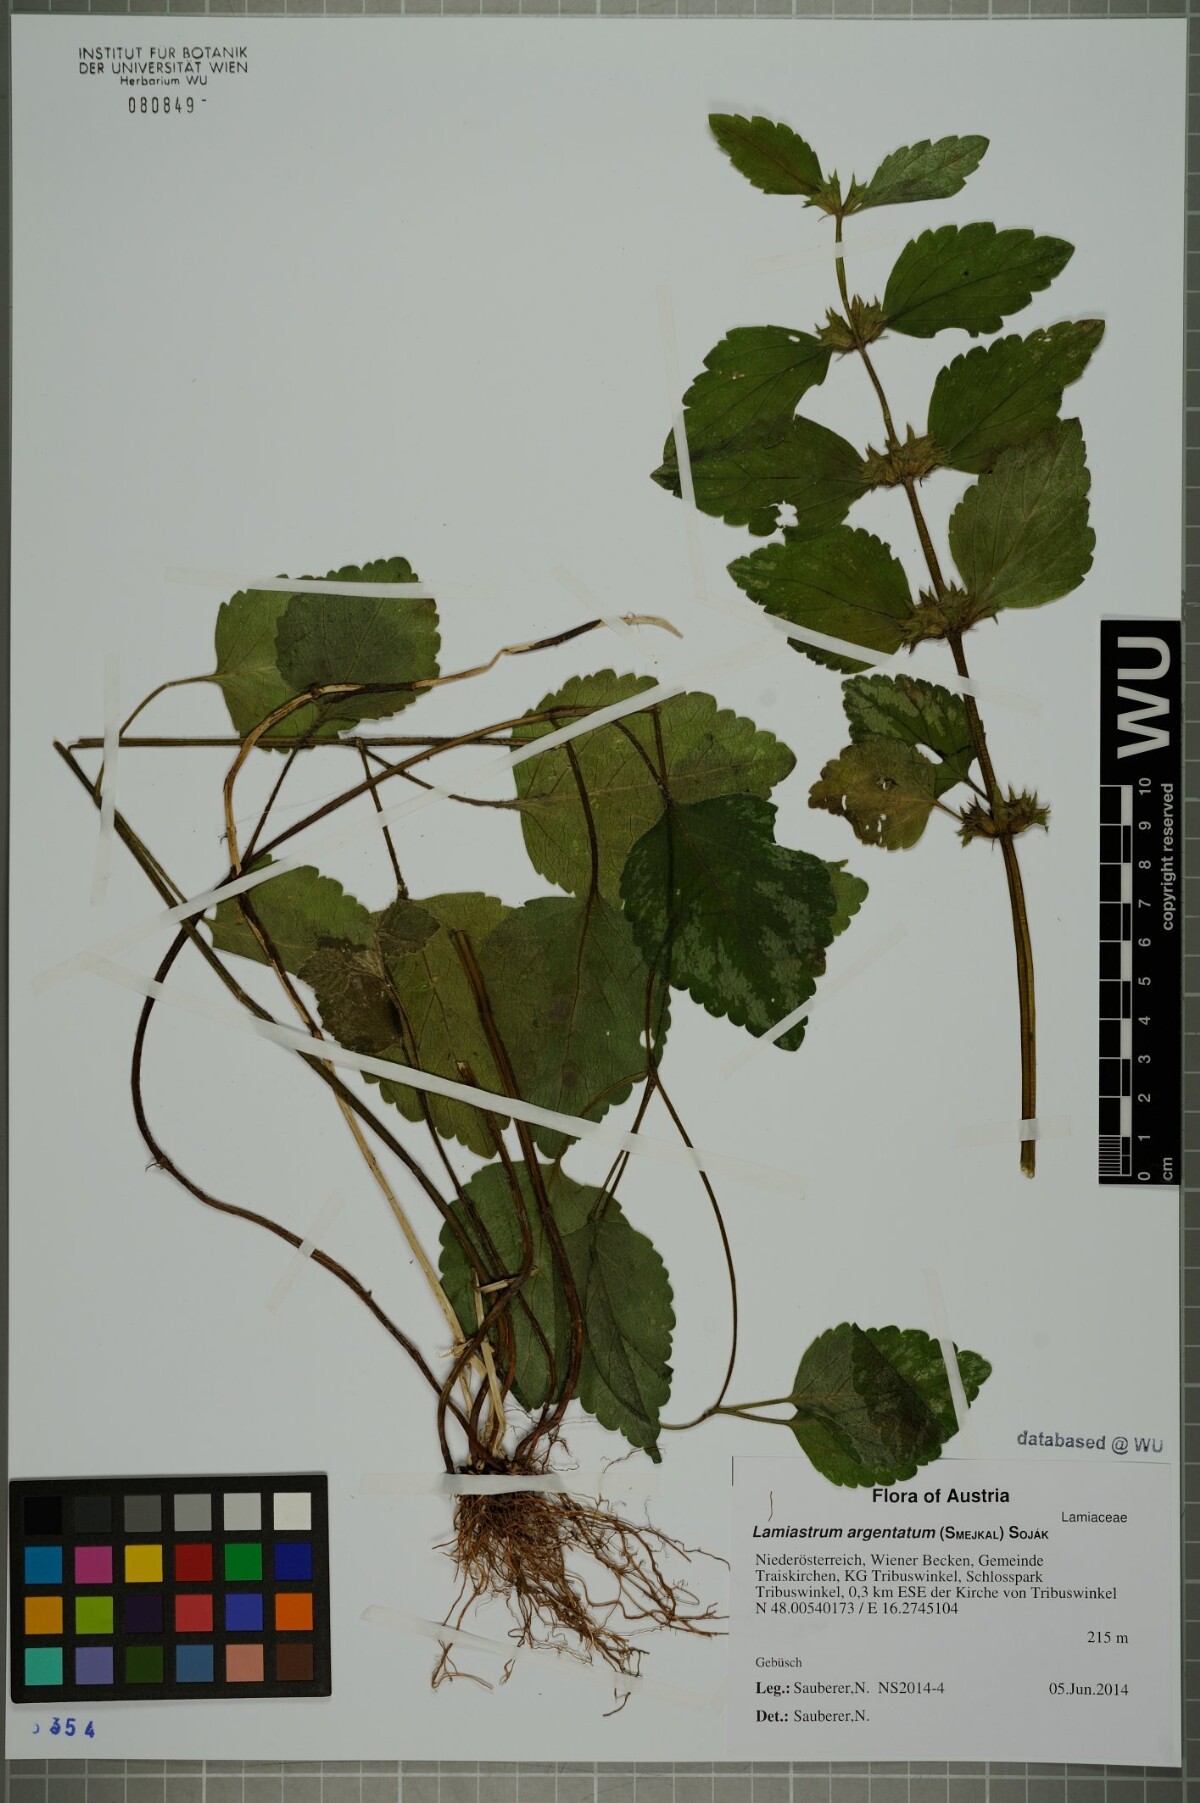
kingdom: Plantae
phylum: Tracheophyta
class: Magnoliopsida
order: Lamiales
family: Lamiaceae
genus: Lamium
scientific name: Lamium galeobdolon
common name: Yellow archangel
